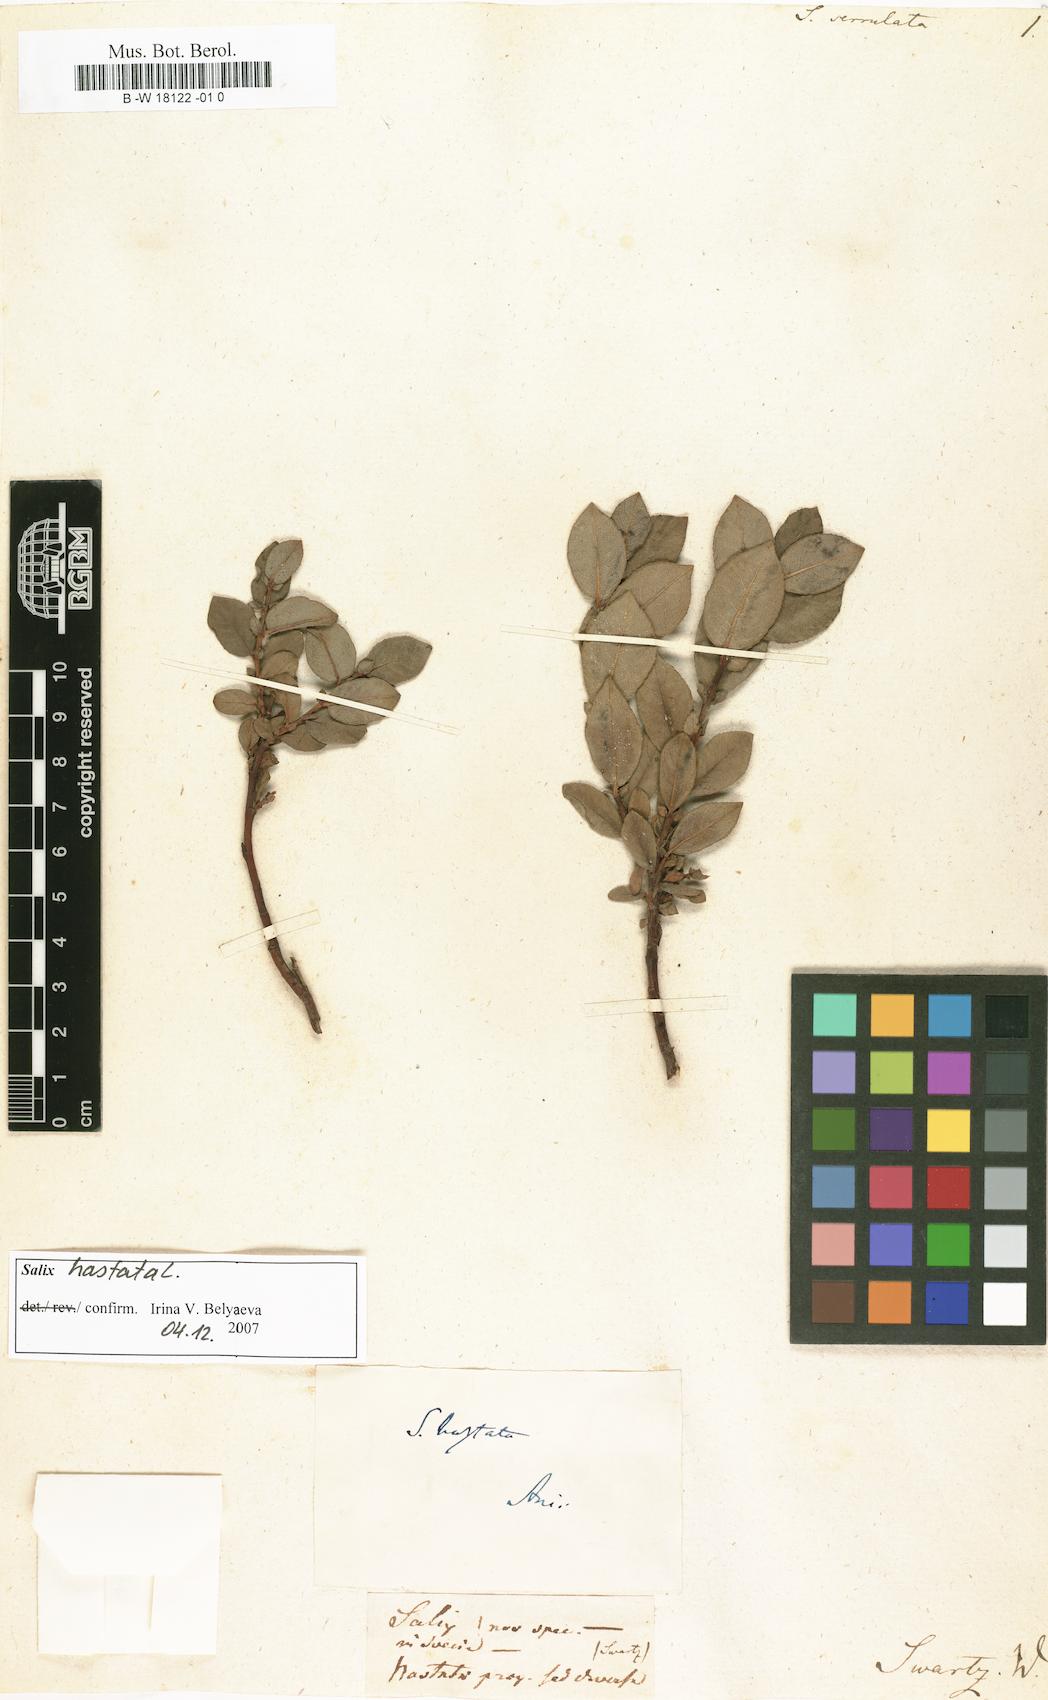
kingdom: Plantae
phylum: Tracheophyta
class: Magnoliopsida
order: Malpighiales
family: Salicaceae
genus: Salix
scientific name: Salix hastata
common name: Halberd willow
